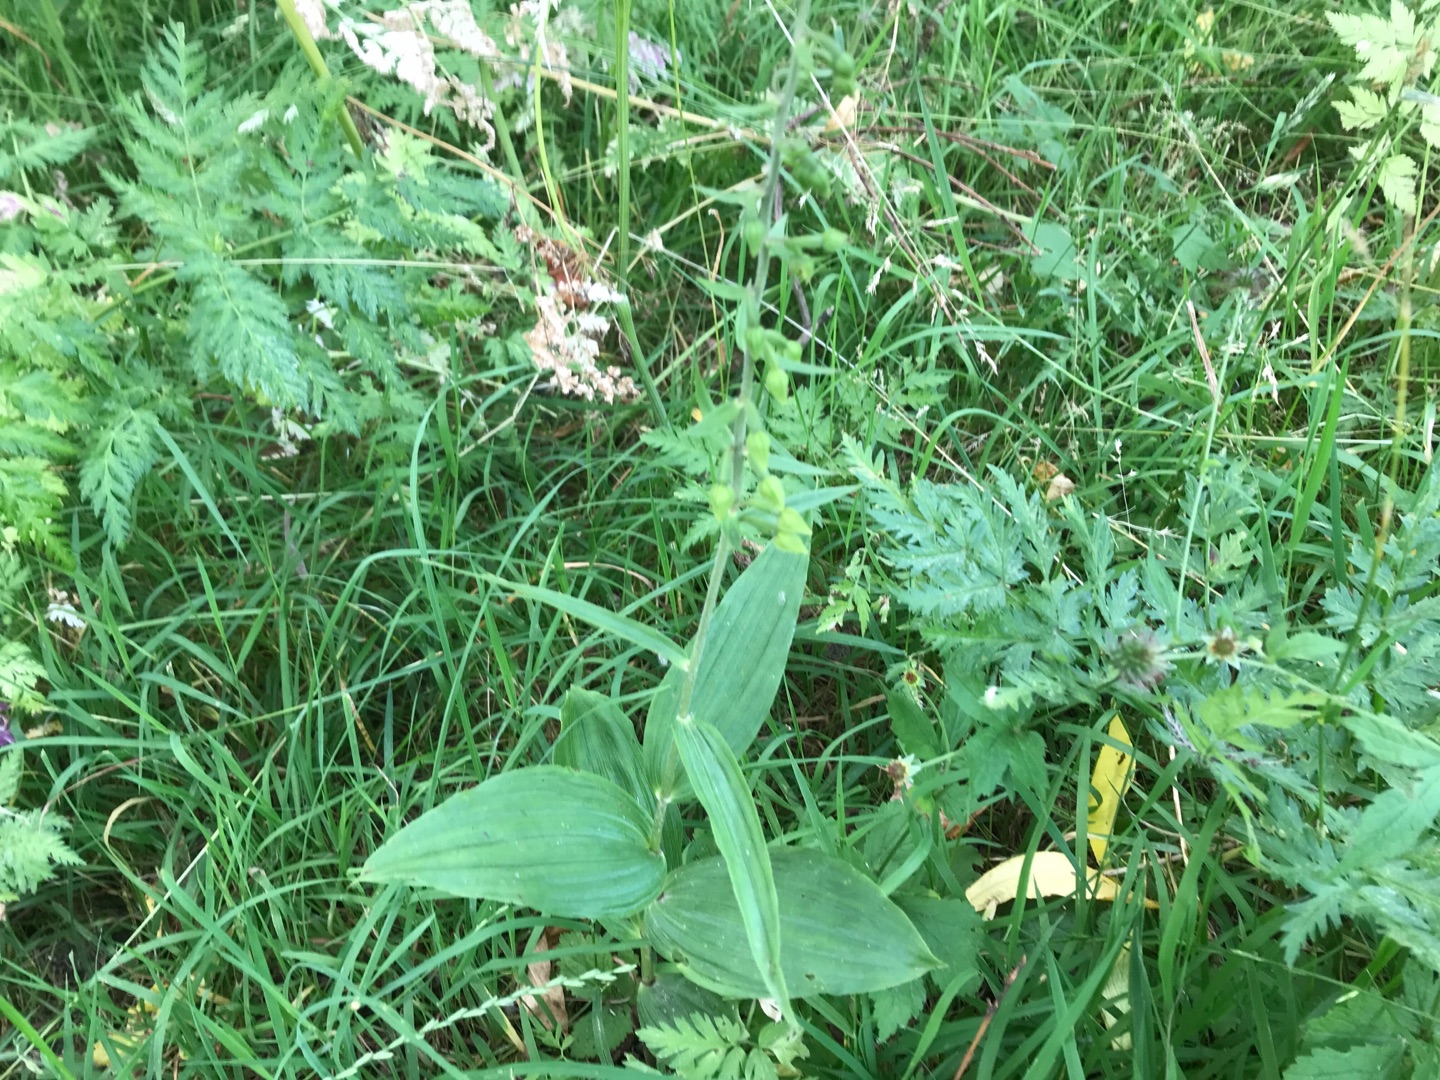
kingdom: Plantae
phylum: Tracheophyta
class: Liliopsida
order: Asparagales
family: Orchidaceae
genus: Epipactis
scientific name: Epipactis helleborine
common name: Skov-hullæbe
